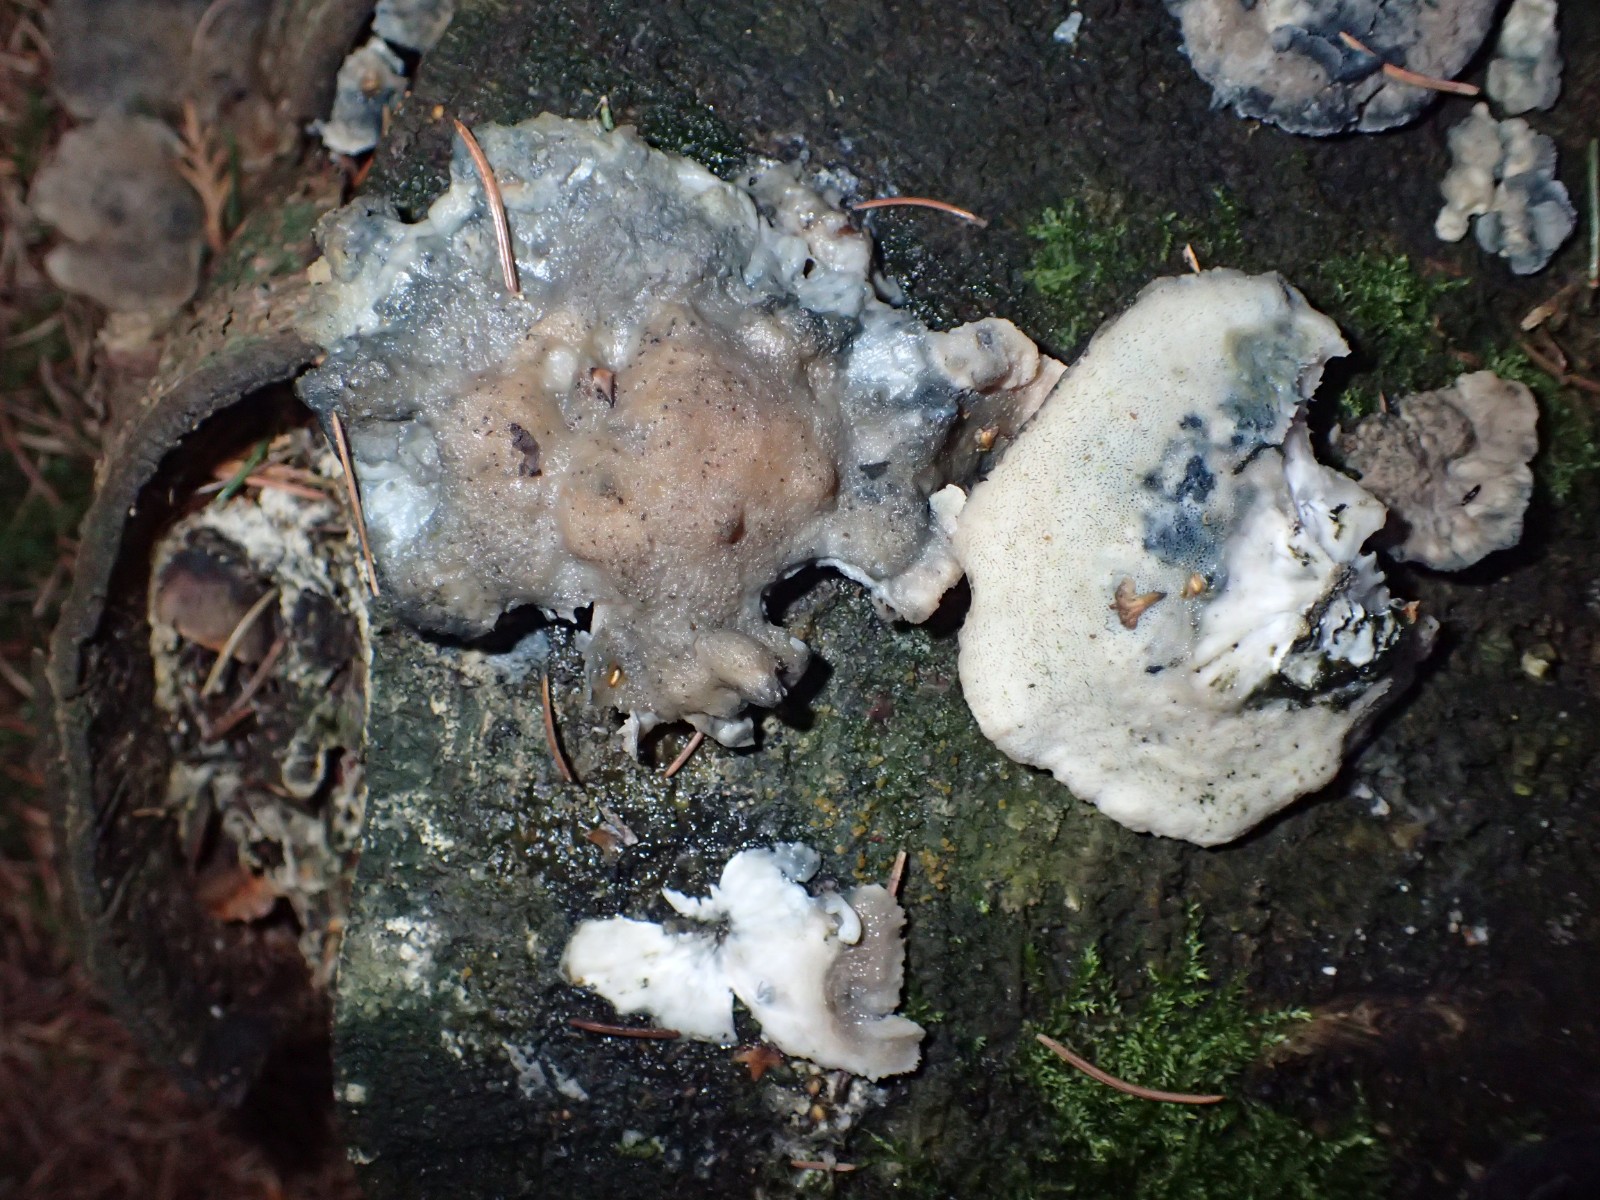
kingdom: Fungi
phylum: Basidiomycota
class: Agaricomycetes
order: Polyporales
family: Polyporaceae
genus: Cyanosporus
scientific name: Cyanosporus caesius
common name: blålig kødporesvamp
